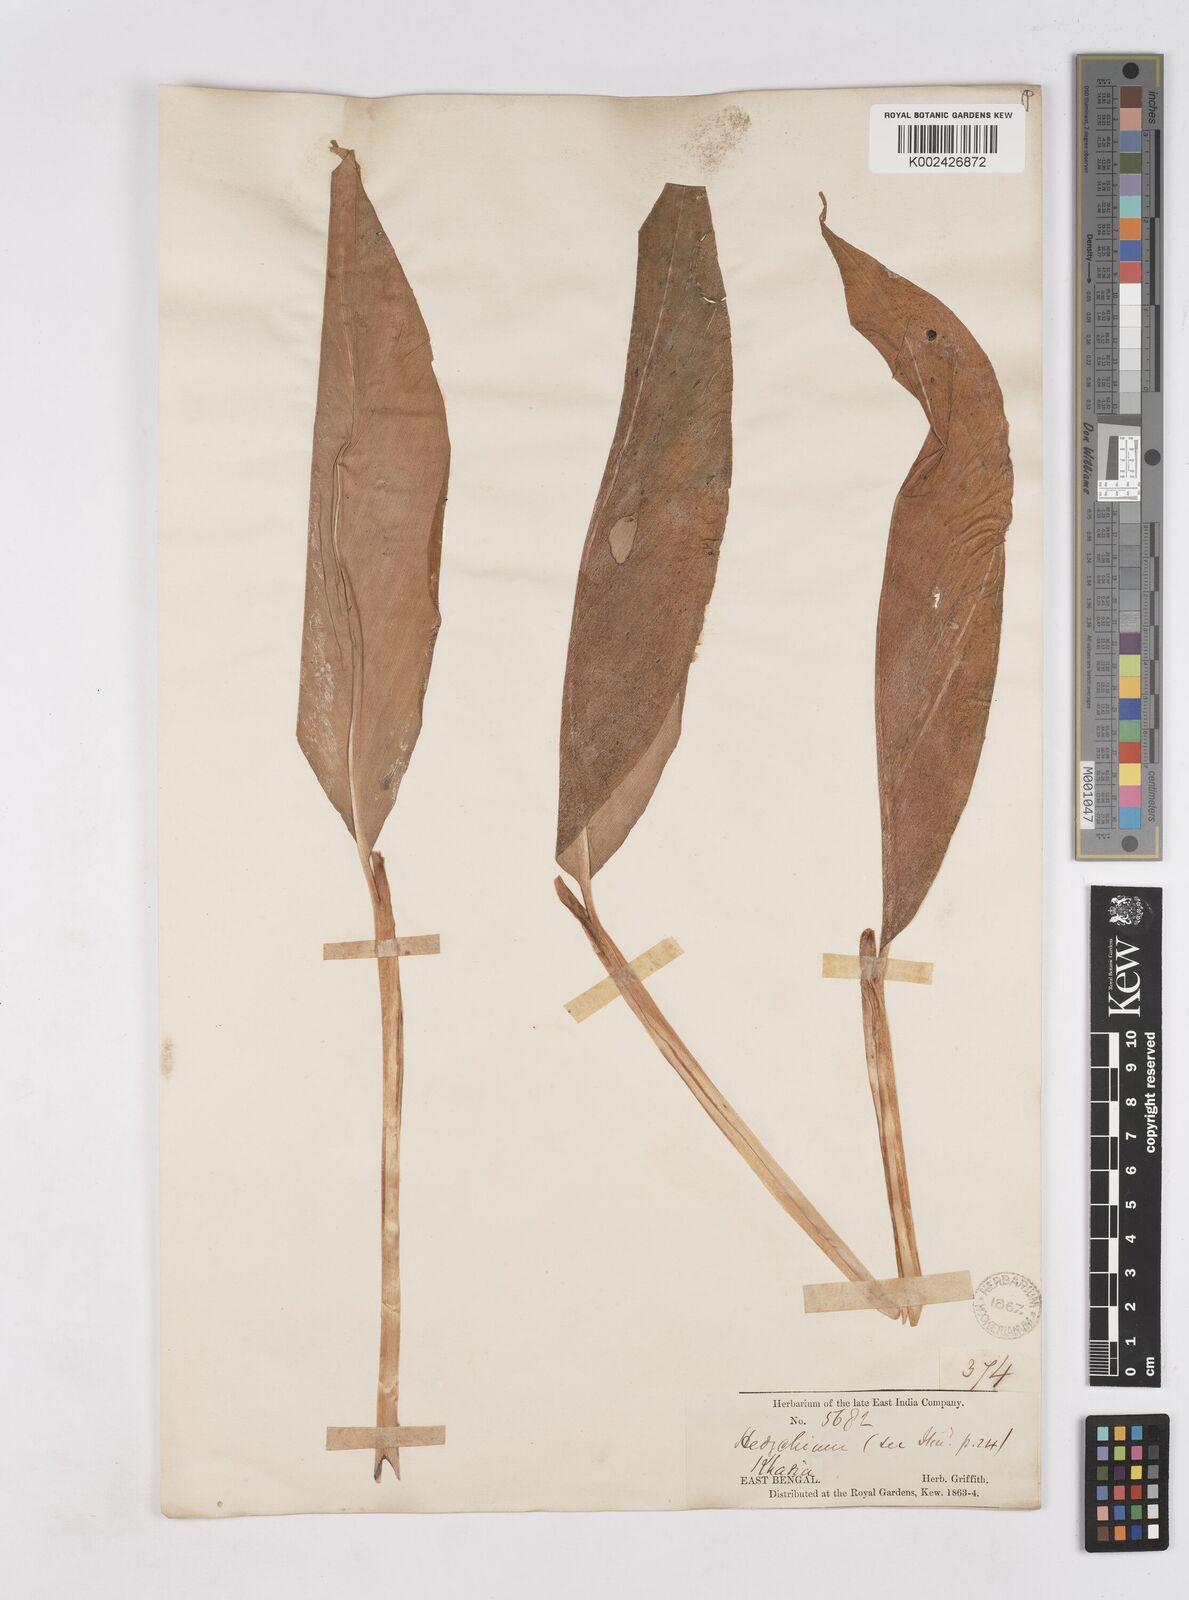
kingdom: Plantae
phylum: Tracheophyta
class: Liliopsida
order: Zingiberales
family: Zingiberaceae
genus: Hedychium
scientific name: Hedychium
